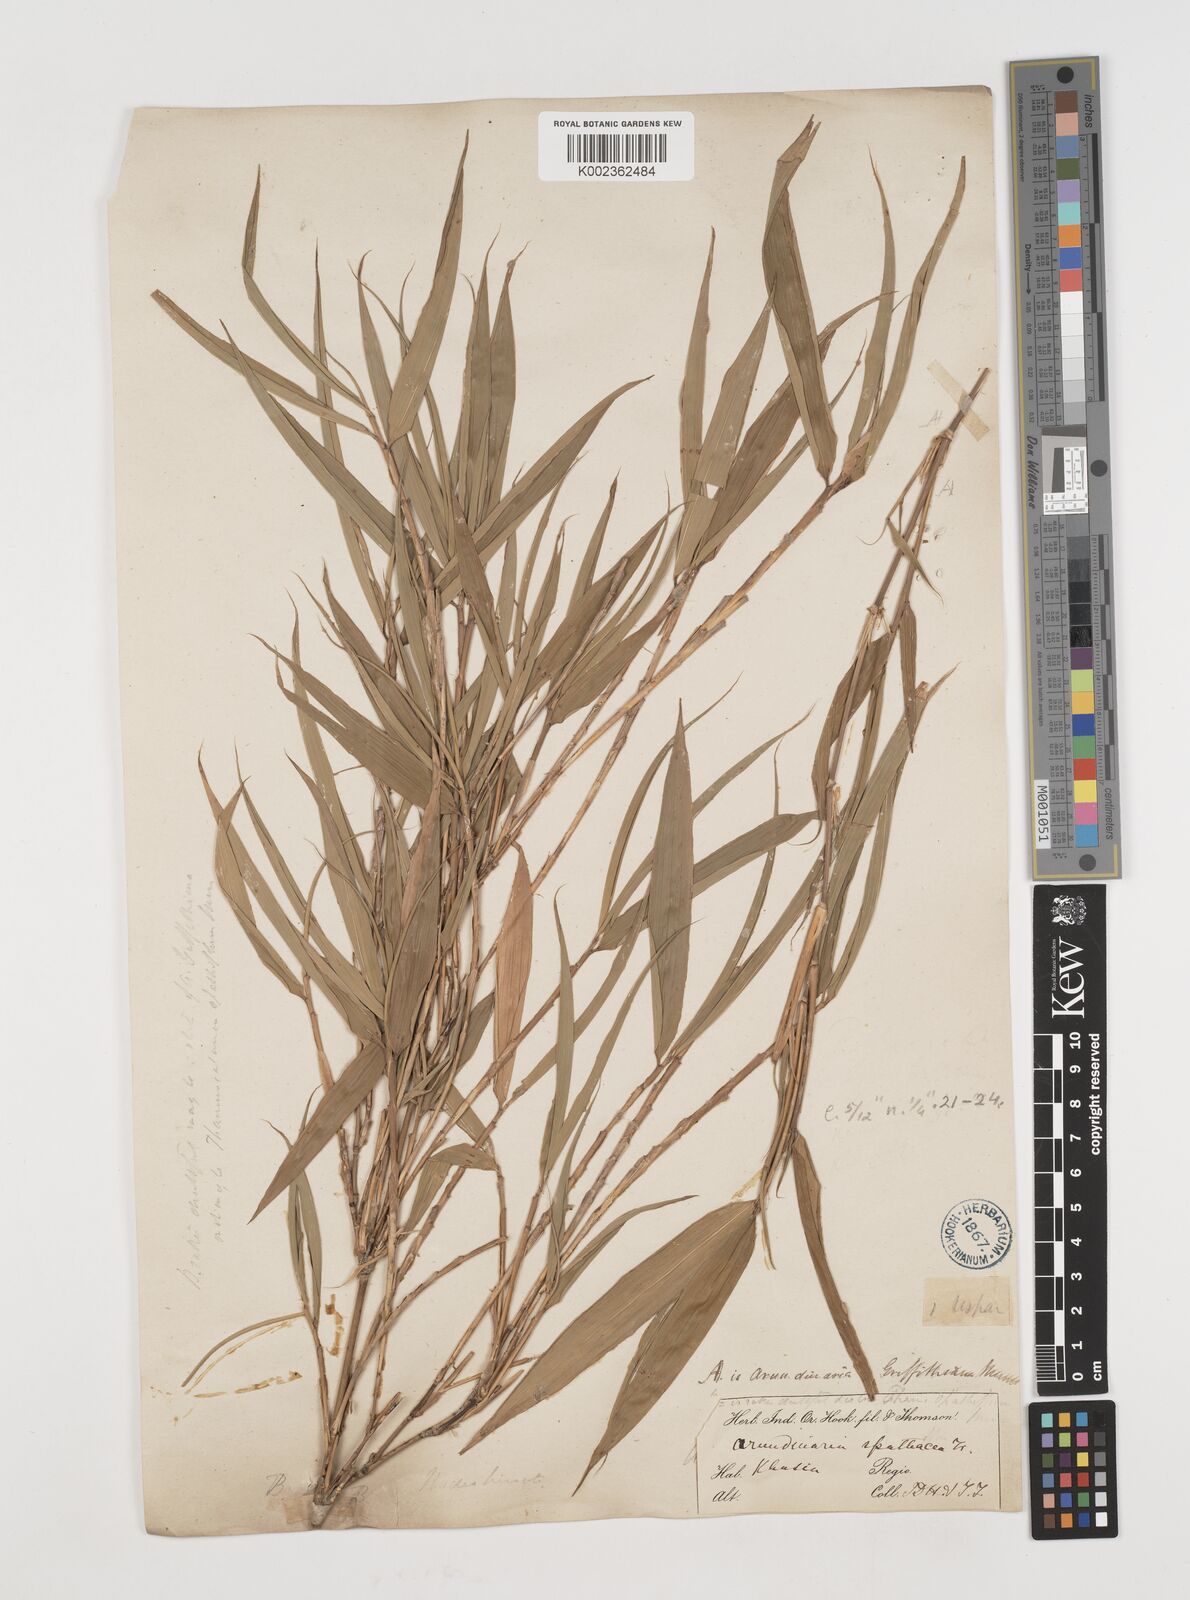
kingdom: Plantae
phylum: Tracheophyta
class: Liliopsida
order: Poales
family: Poaceae
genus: Chimonocalamus
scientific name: Chimonocalamus griffithianus
